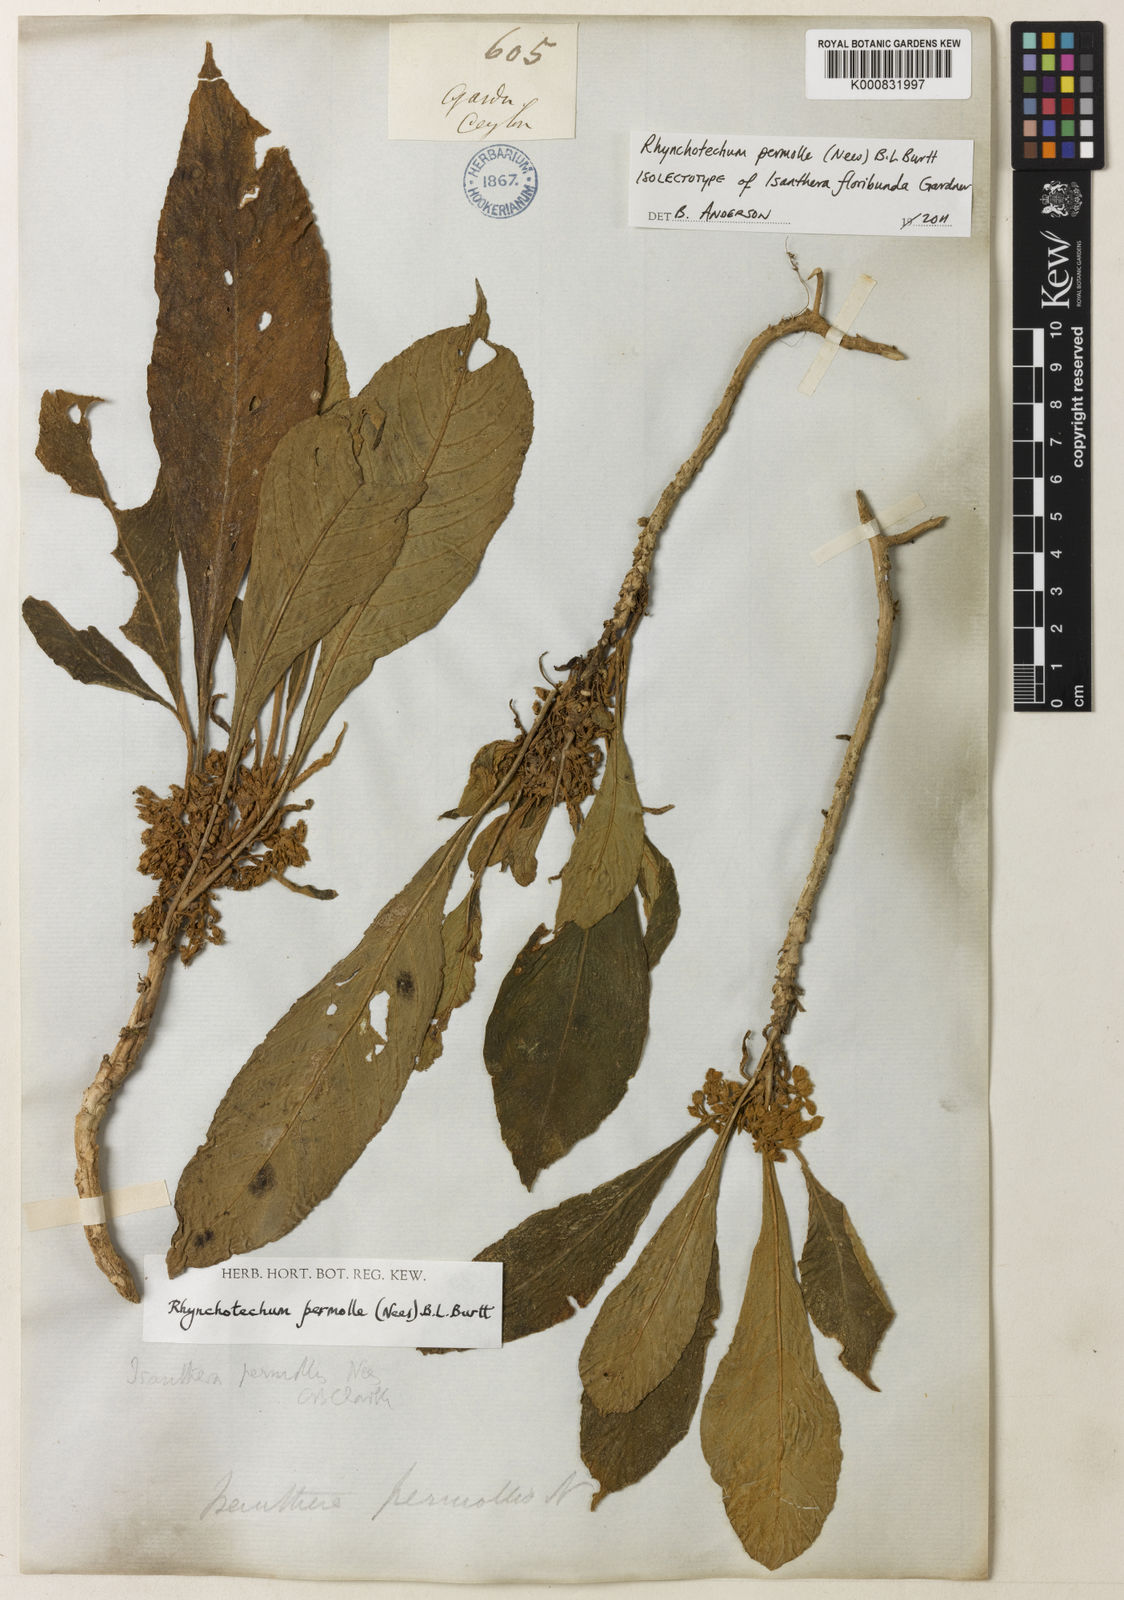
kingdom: Plantae
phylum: Tracheophyta
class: Magnoliopsida
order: Lamiales
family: Gesneriaceae
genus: Rhynchotechum
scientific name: Rhynchotechum permolle
